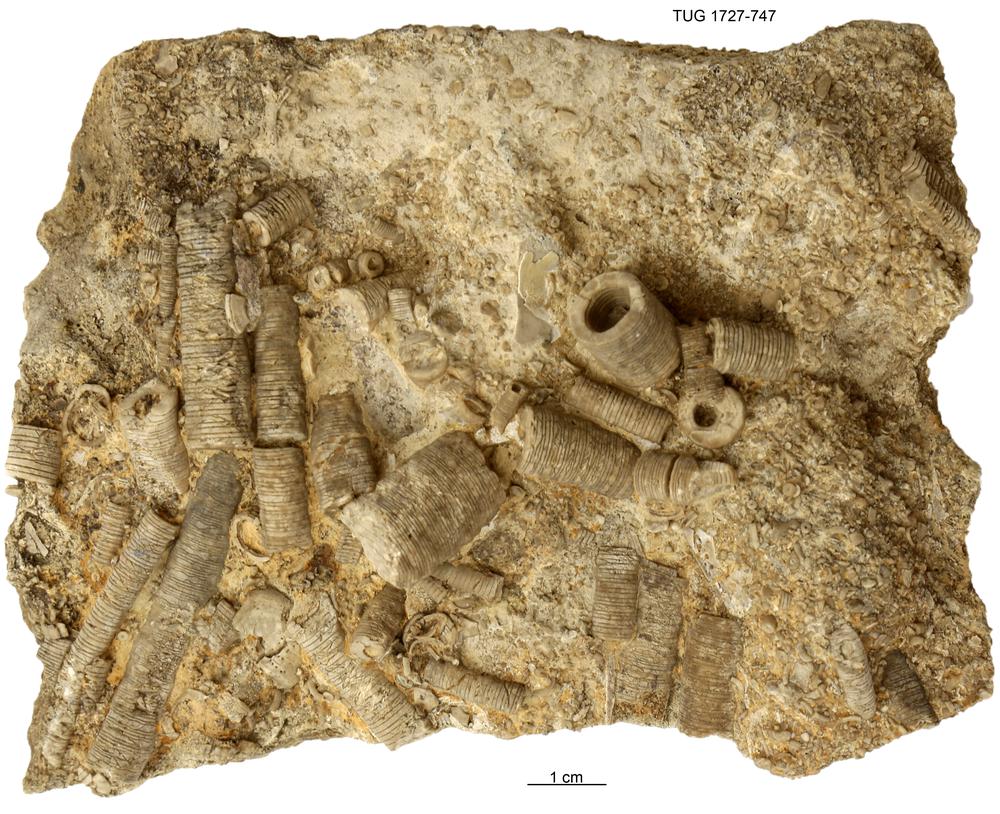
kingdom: Animalia
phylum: Echinodermata
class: Crinoidea
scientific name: Crinoidea
